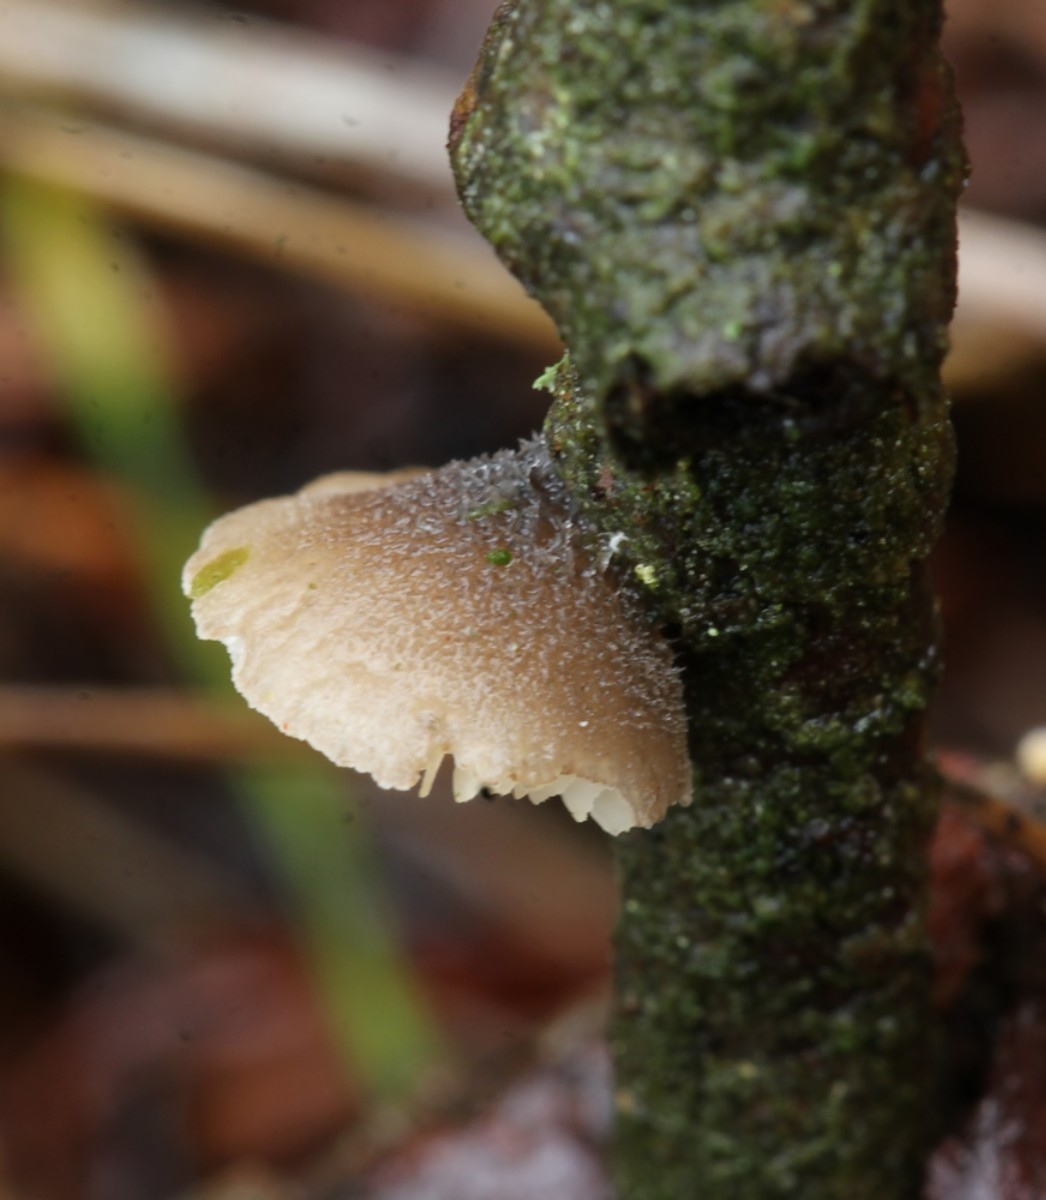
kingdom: Fungi
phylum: Basidiomycota
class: Agaricomycetes
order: Agaricales
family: Pleurotaceae
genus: Hohenbuehelia
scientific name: Hohenbuehelia
